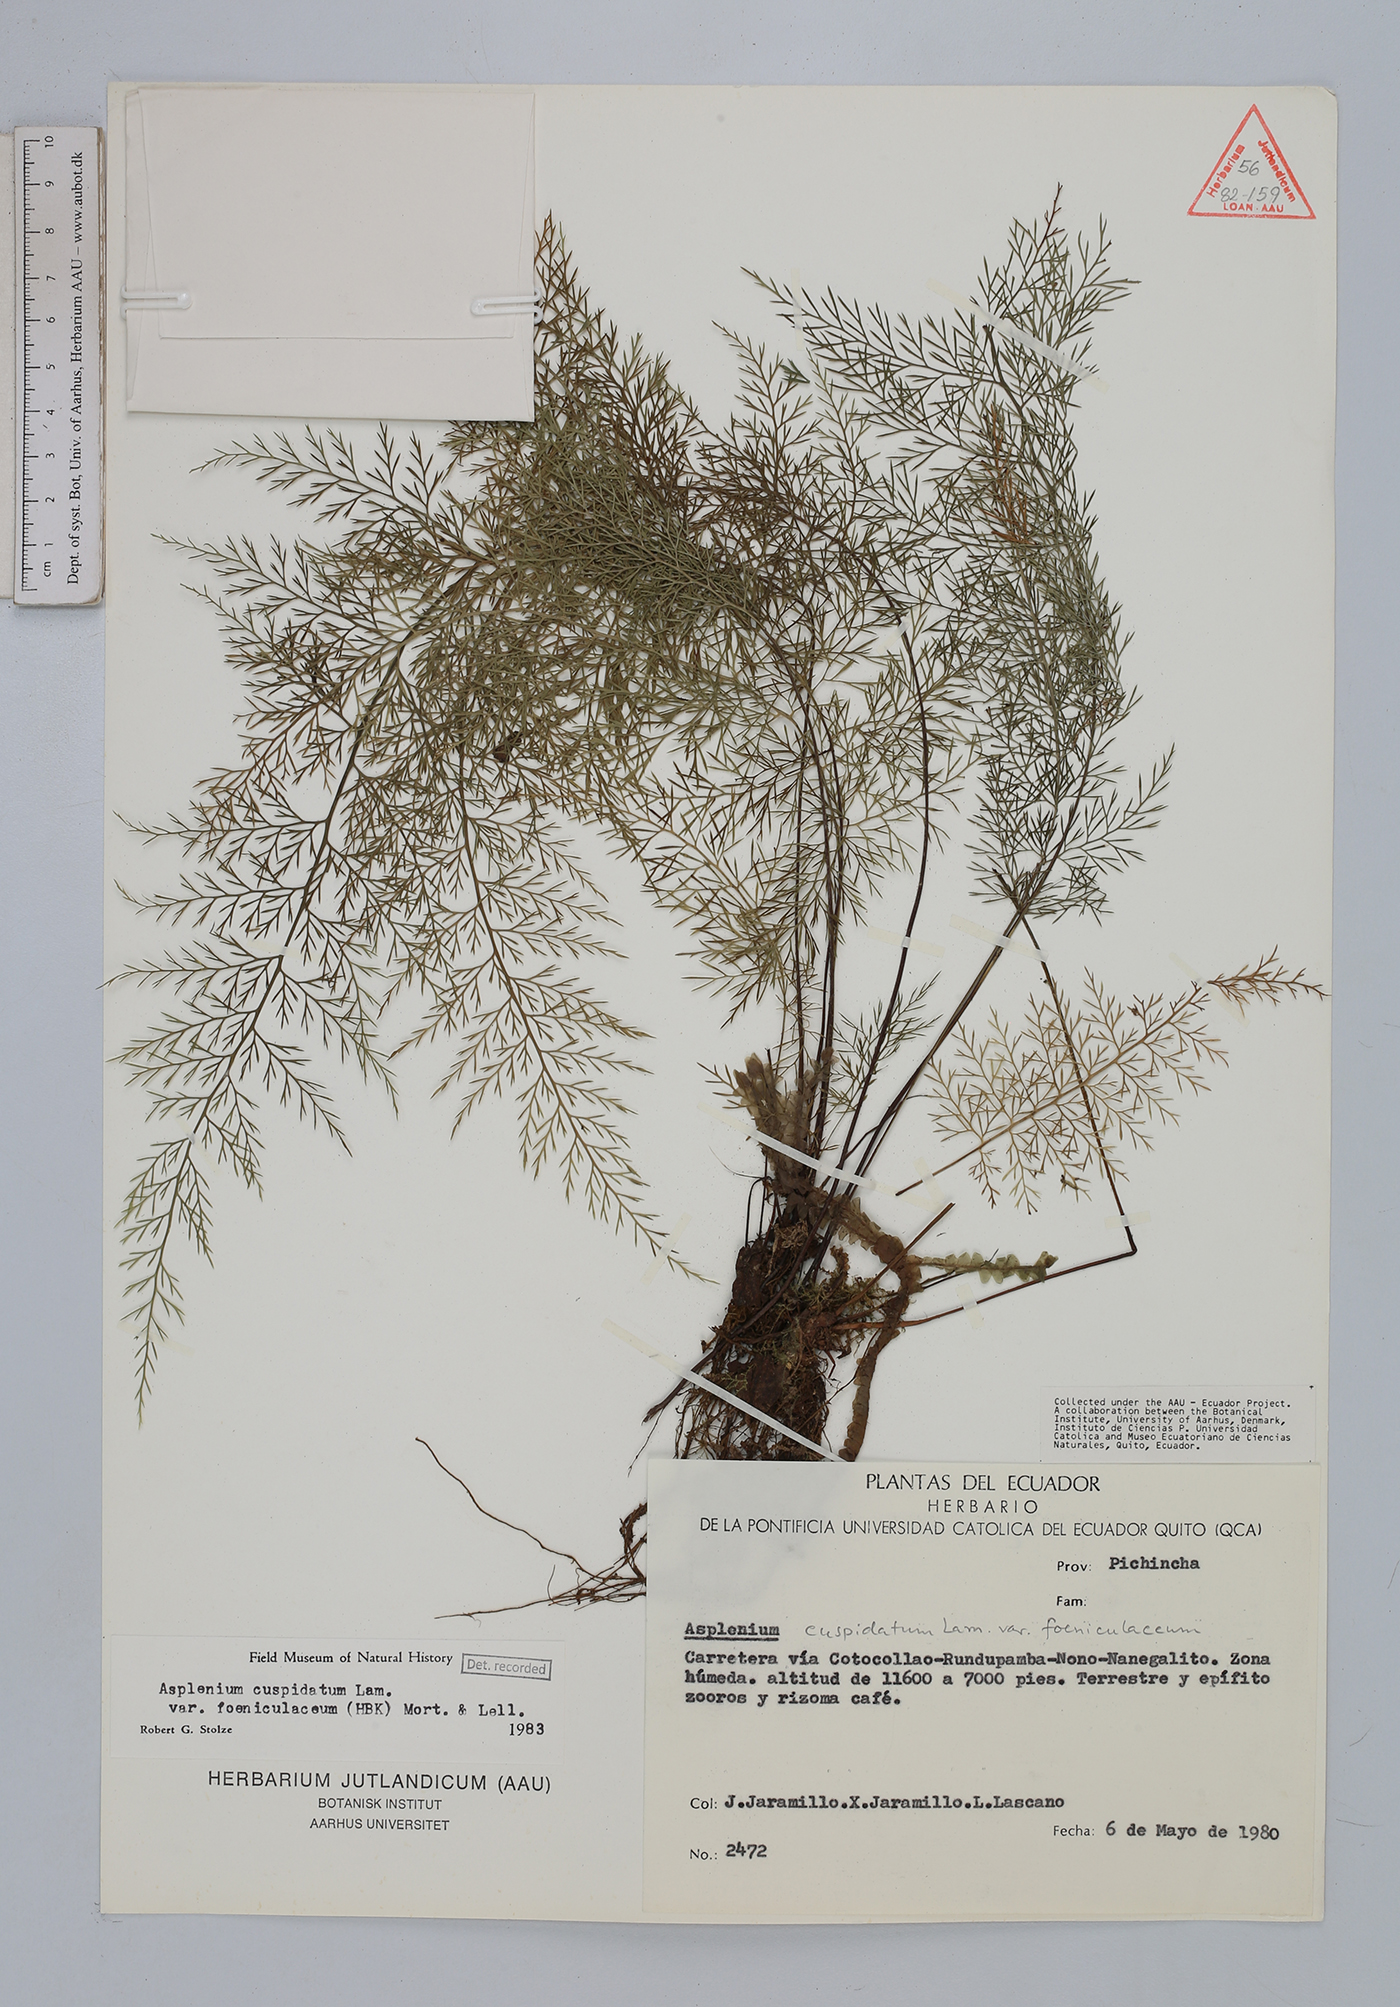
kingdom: Plantae
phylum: Tracheophyta
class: Polypodiopsida
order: Polypodiales
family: Aspleniaceae
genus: Asplenium
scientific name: Asplenium cuspidatum
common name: Eared spleenwort
